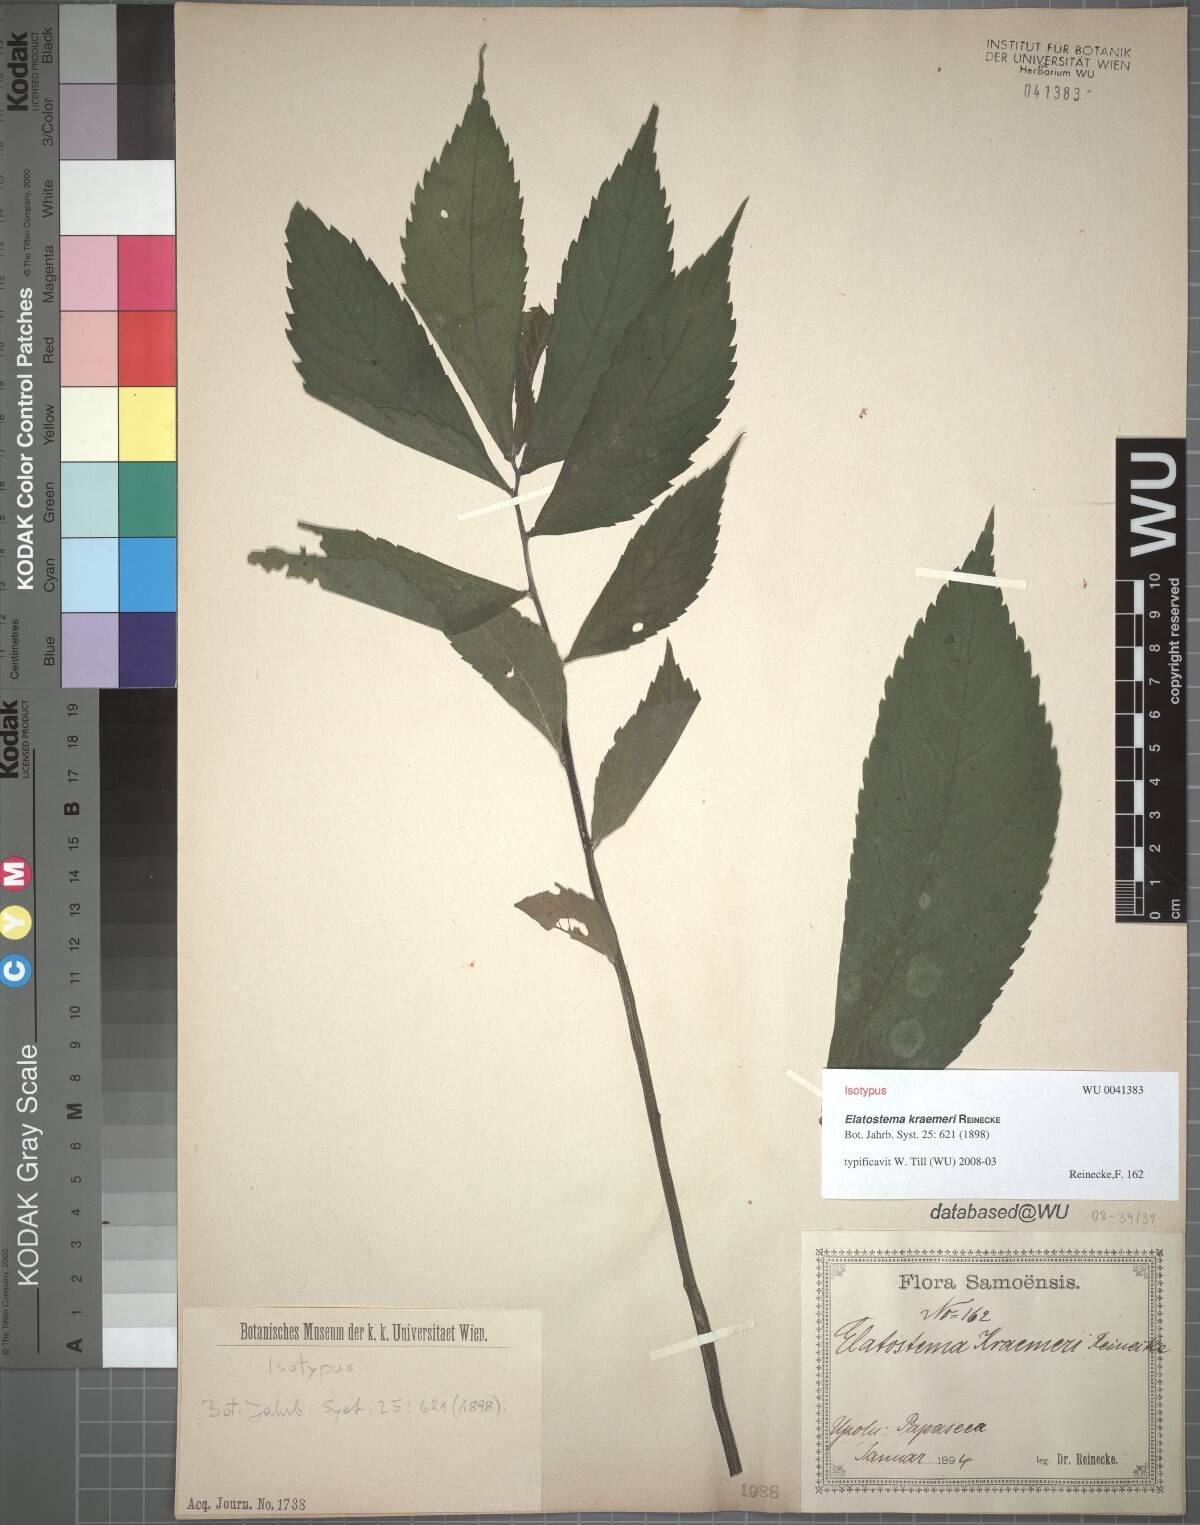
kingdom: Plantae
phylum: Tracheophyta
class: Magnoliopsida
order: Rosales
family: Urticaceae
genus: Elatostema
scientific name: Elatostema kraemeri
